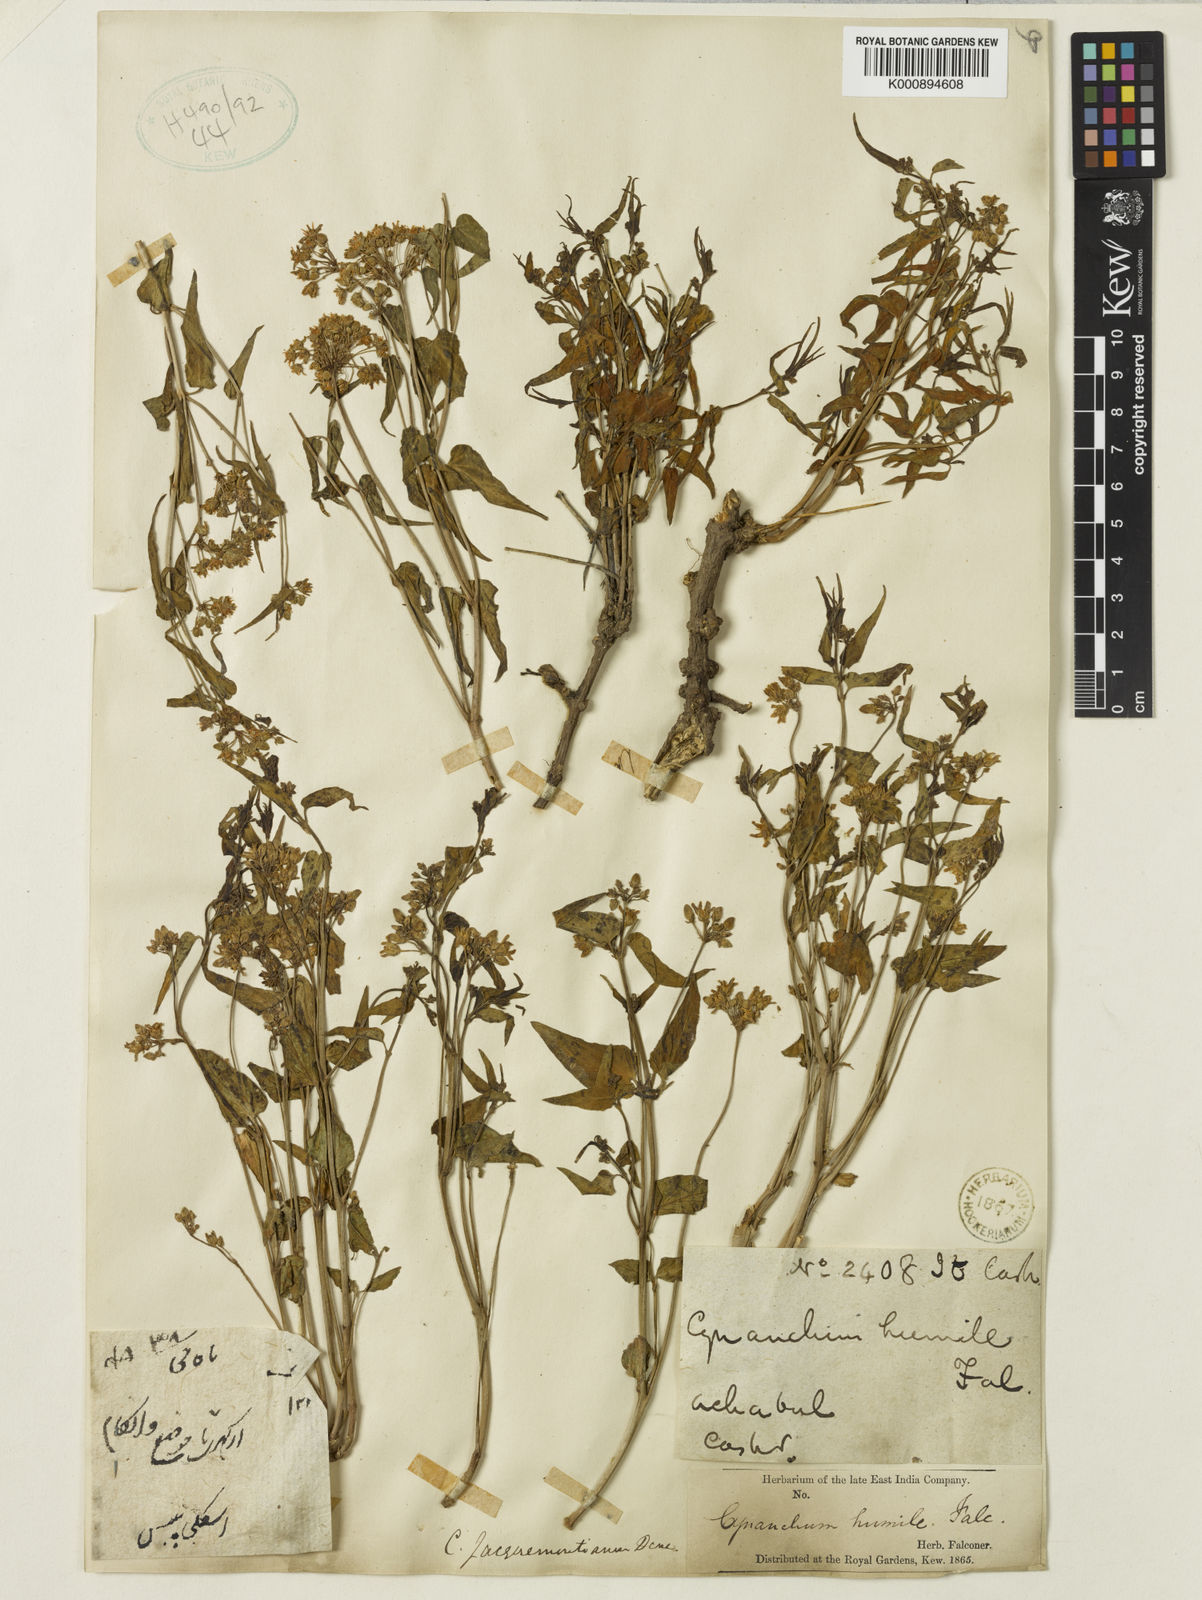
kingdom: Plantae
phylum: Tracheophyta
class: Magnoliopsida
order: Gentianales
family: Apocynaceae
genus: Vincetoxicum
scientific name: Vincetoxicum jacquemontianum
